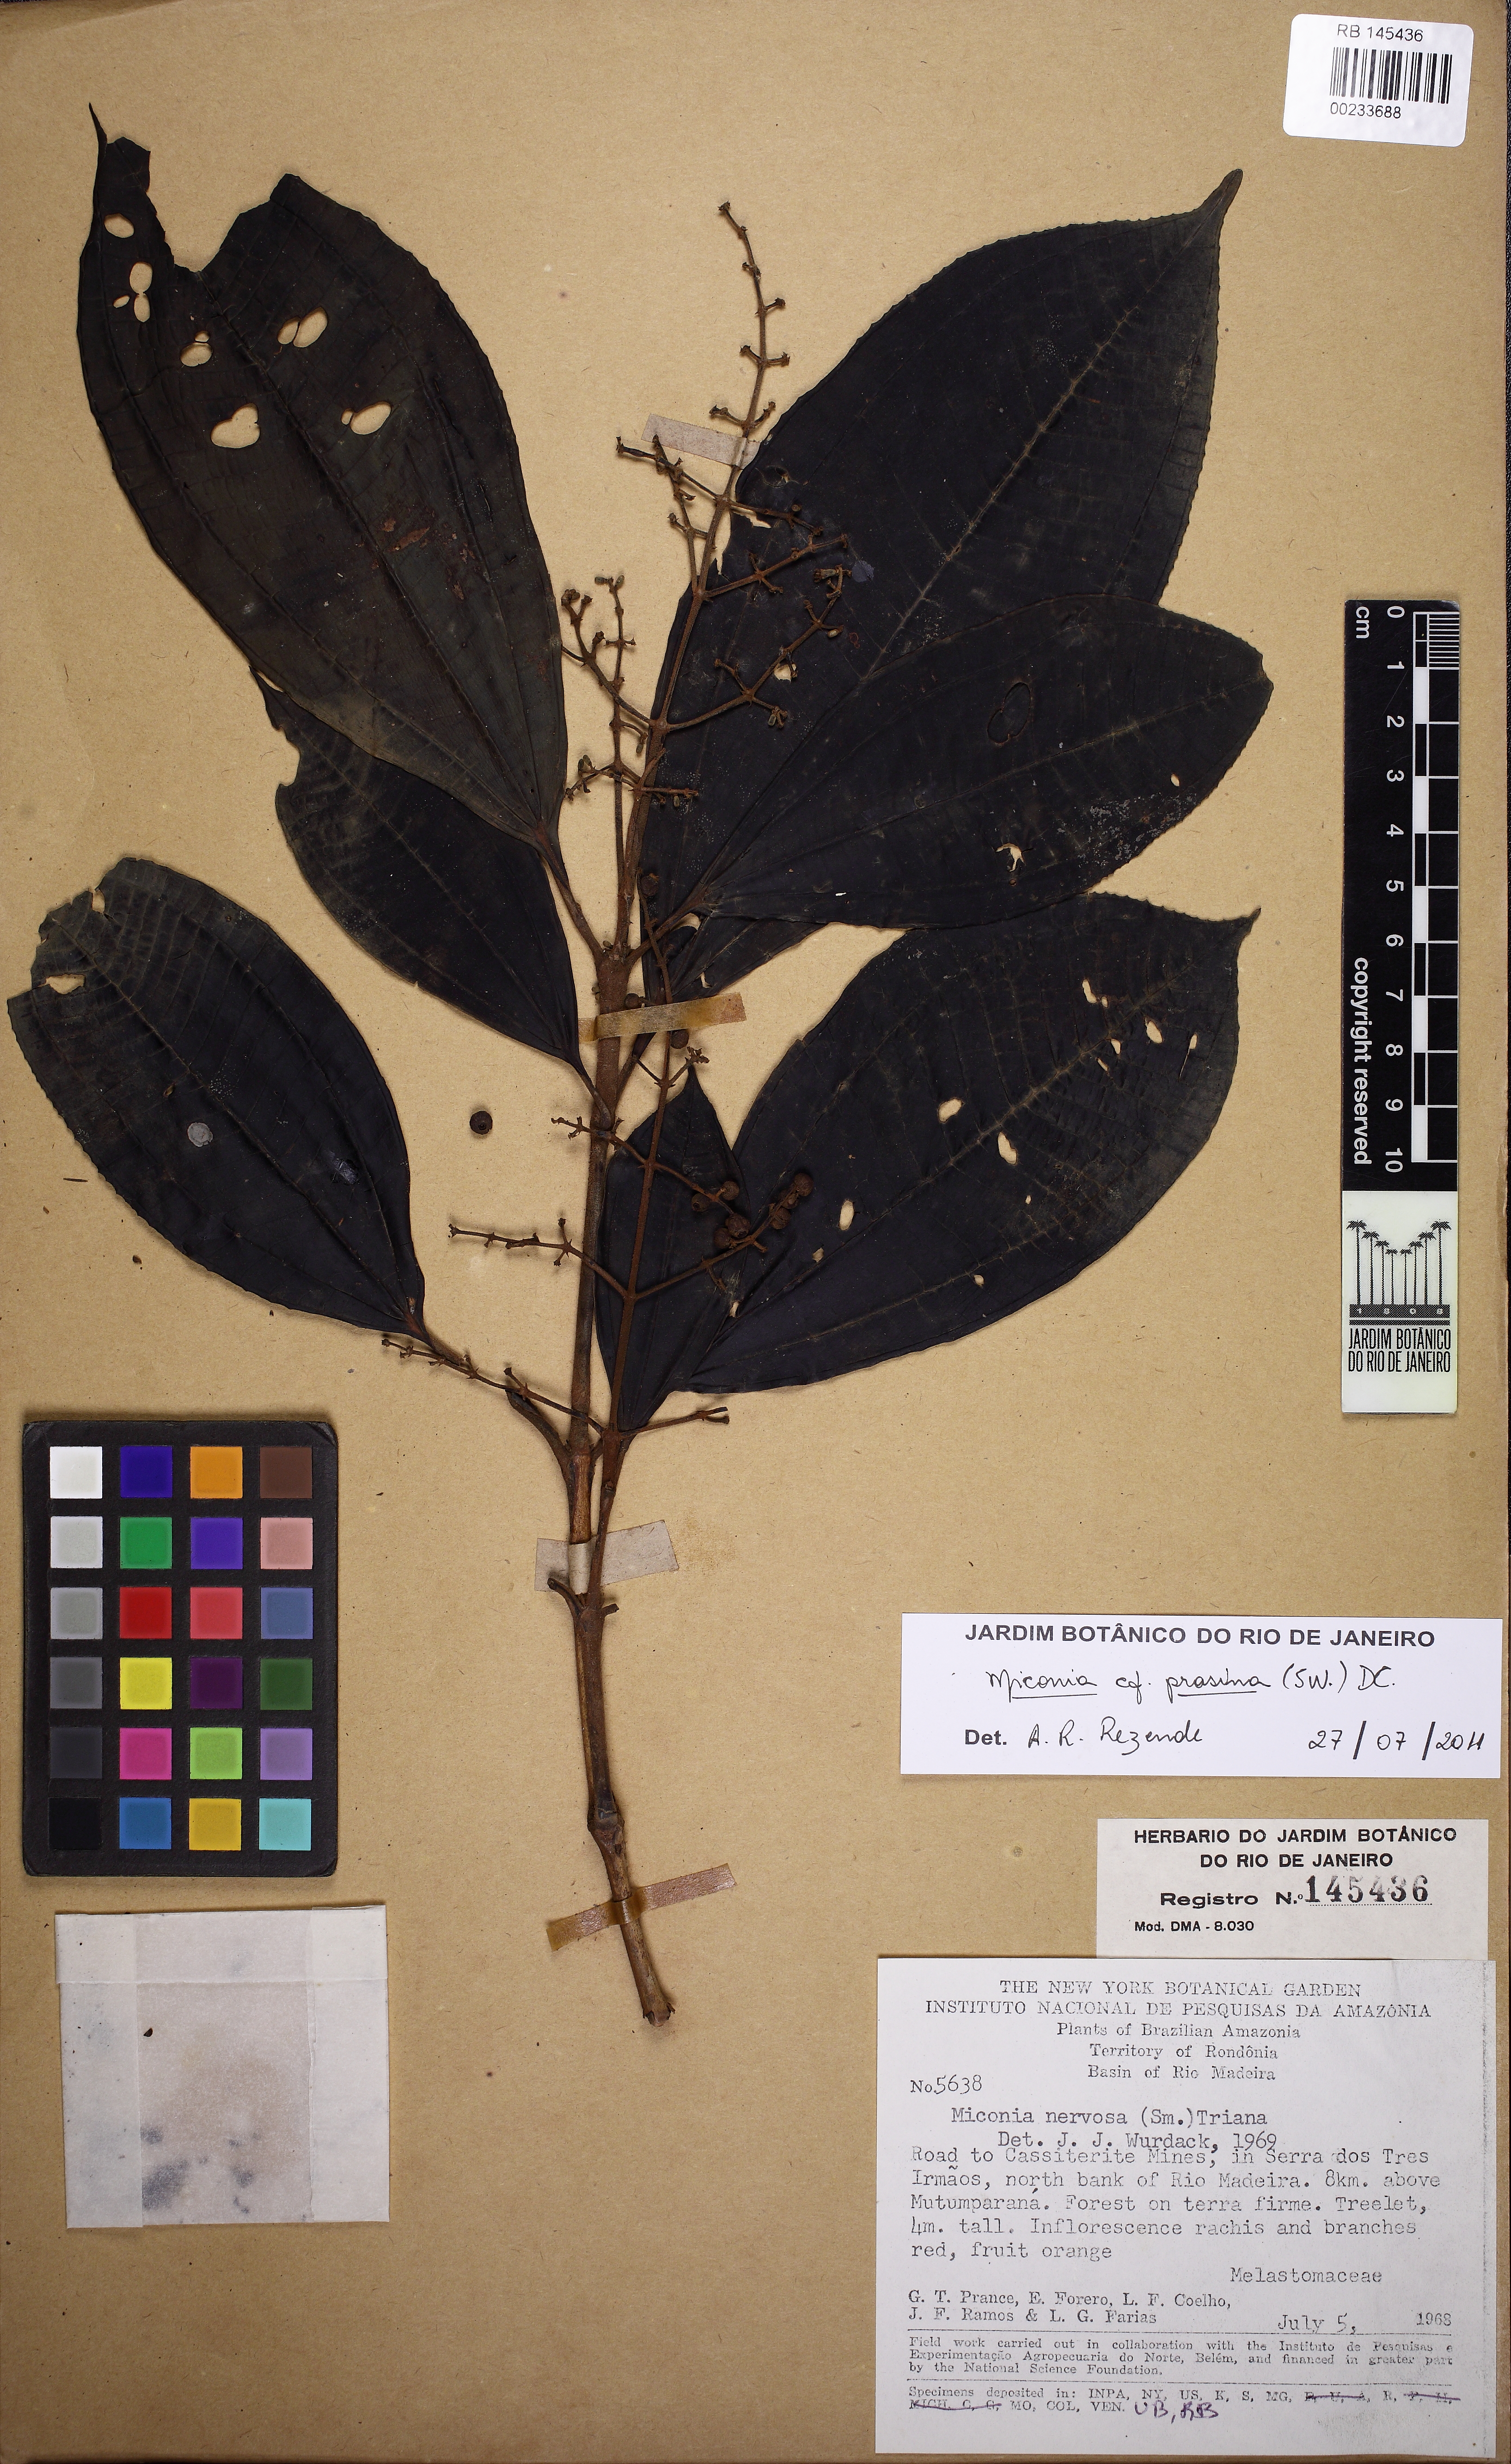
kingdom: Plantae
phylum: Tracheophyta
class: Magnoliopsida
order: Myrtales
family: Melastomataceae
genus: Miconia
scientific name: Miconia prasina
